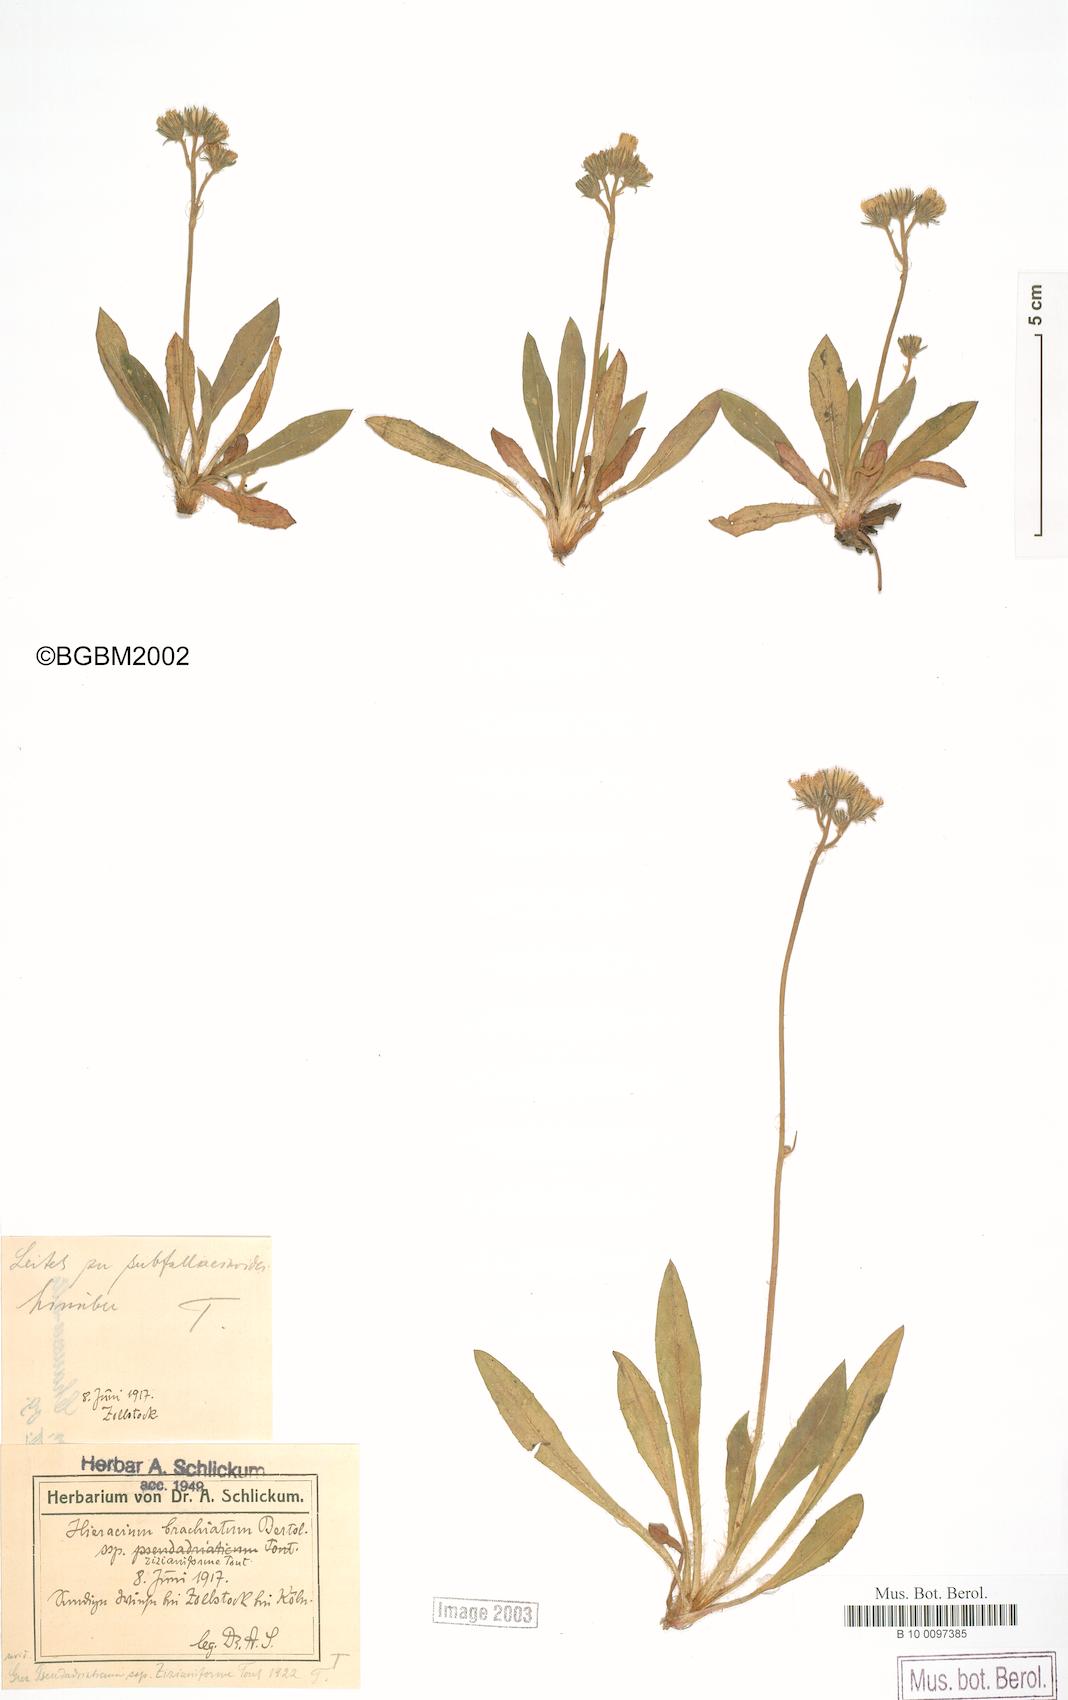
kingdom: Plantae
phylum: Tracheophyta
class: Magnoliopsida
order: Asterales
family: Asteraceae
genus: Pilosella
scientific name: Pilosella visianii
